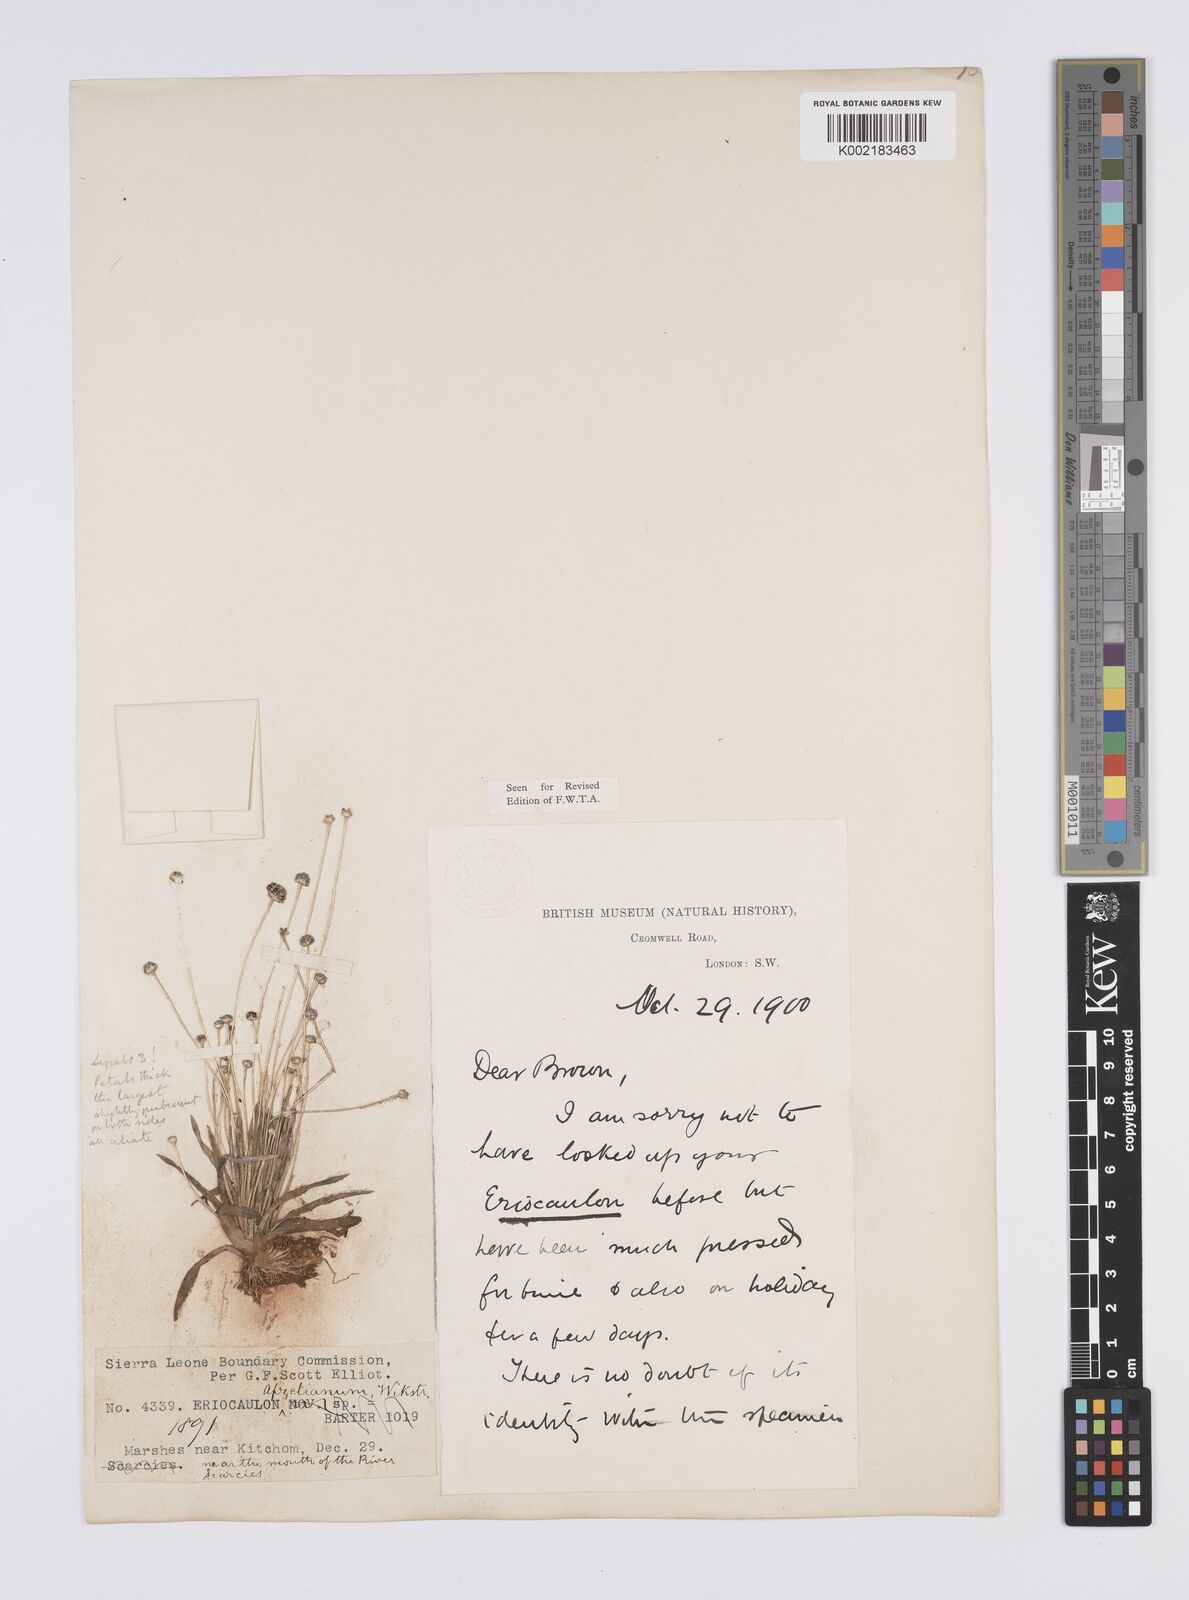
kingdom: Plantae
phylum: Tracheophyta
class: Liliopsida
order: Poales
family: Eriocaulaceae
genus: Eriocaulon
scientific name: Eriocaulon afzelianum
